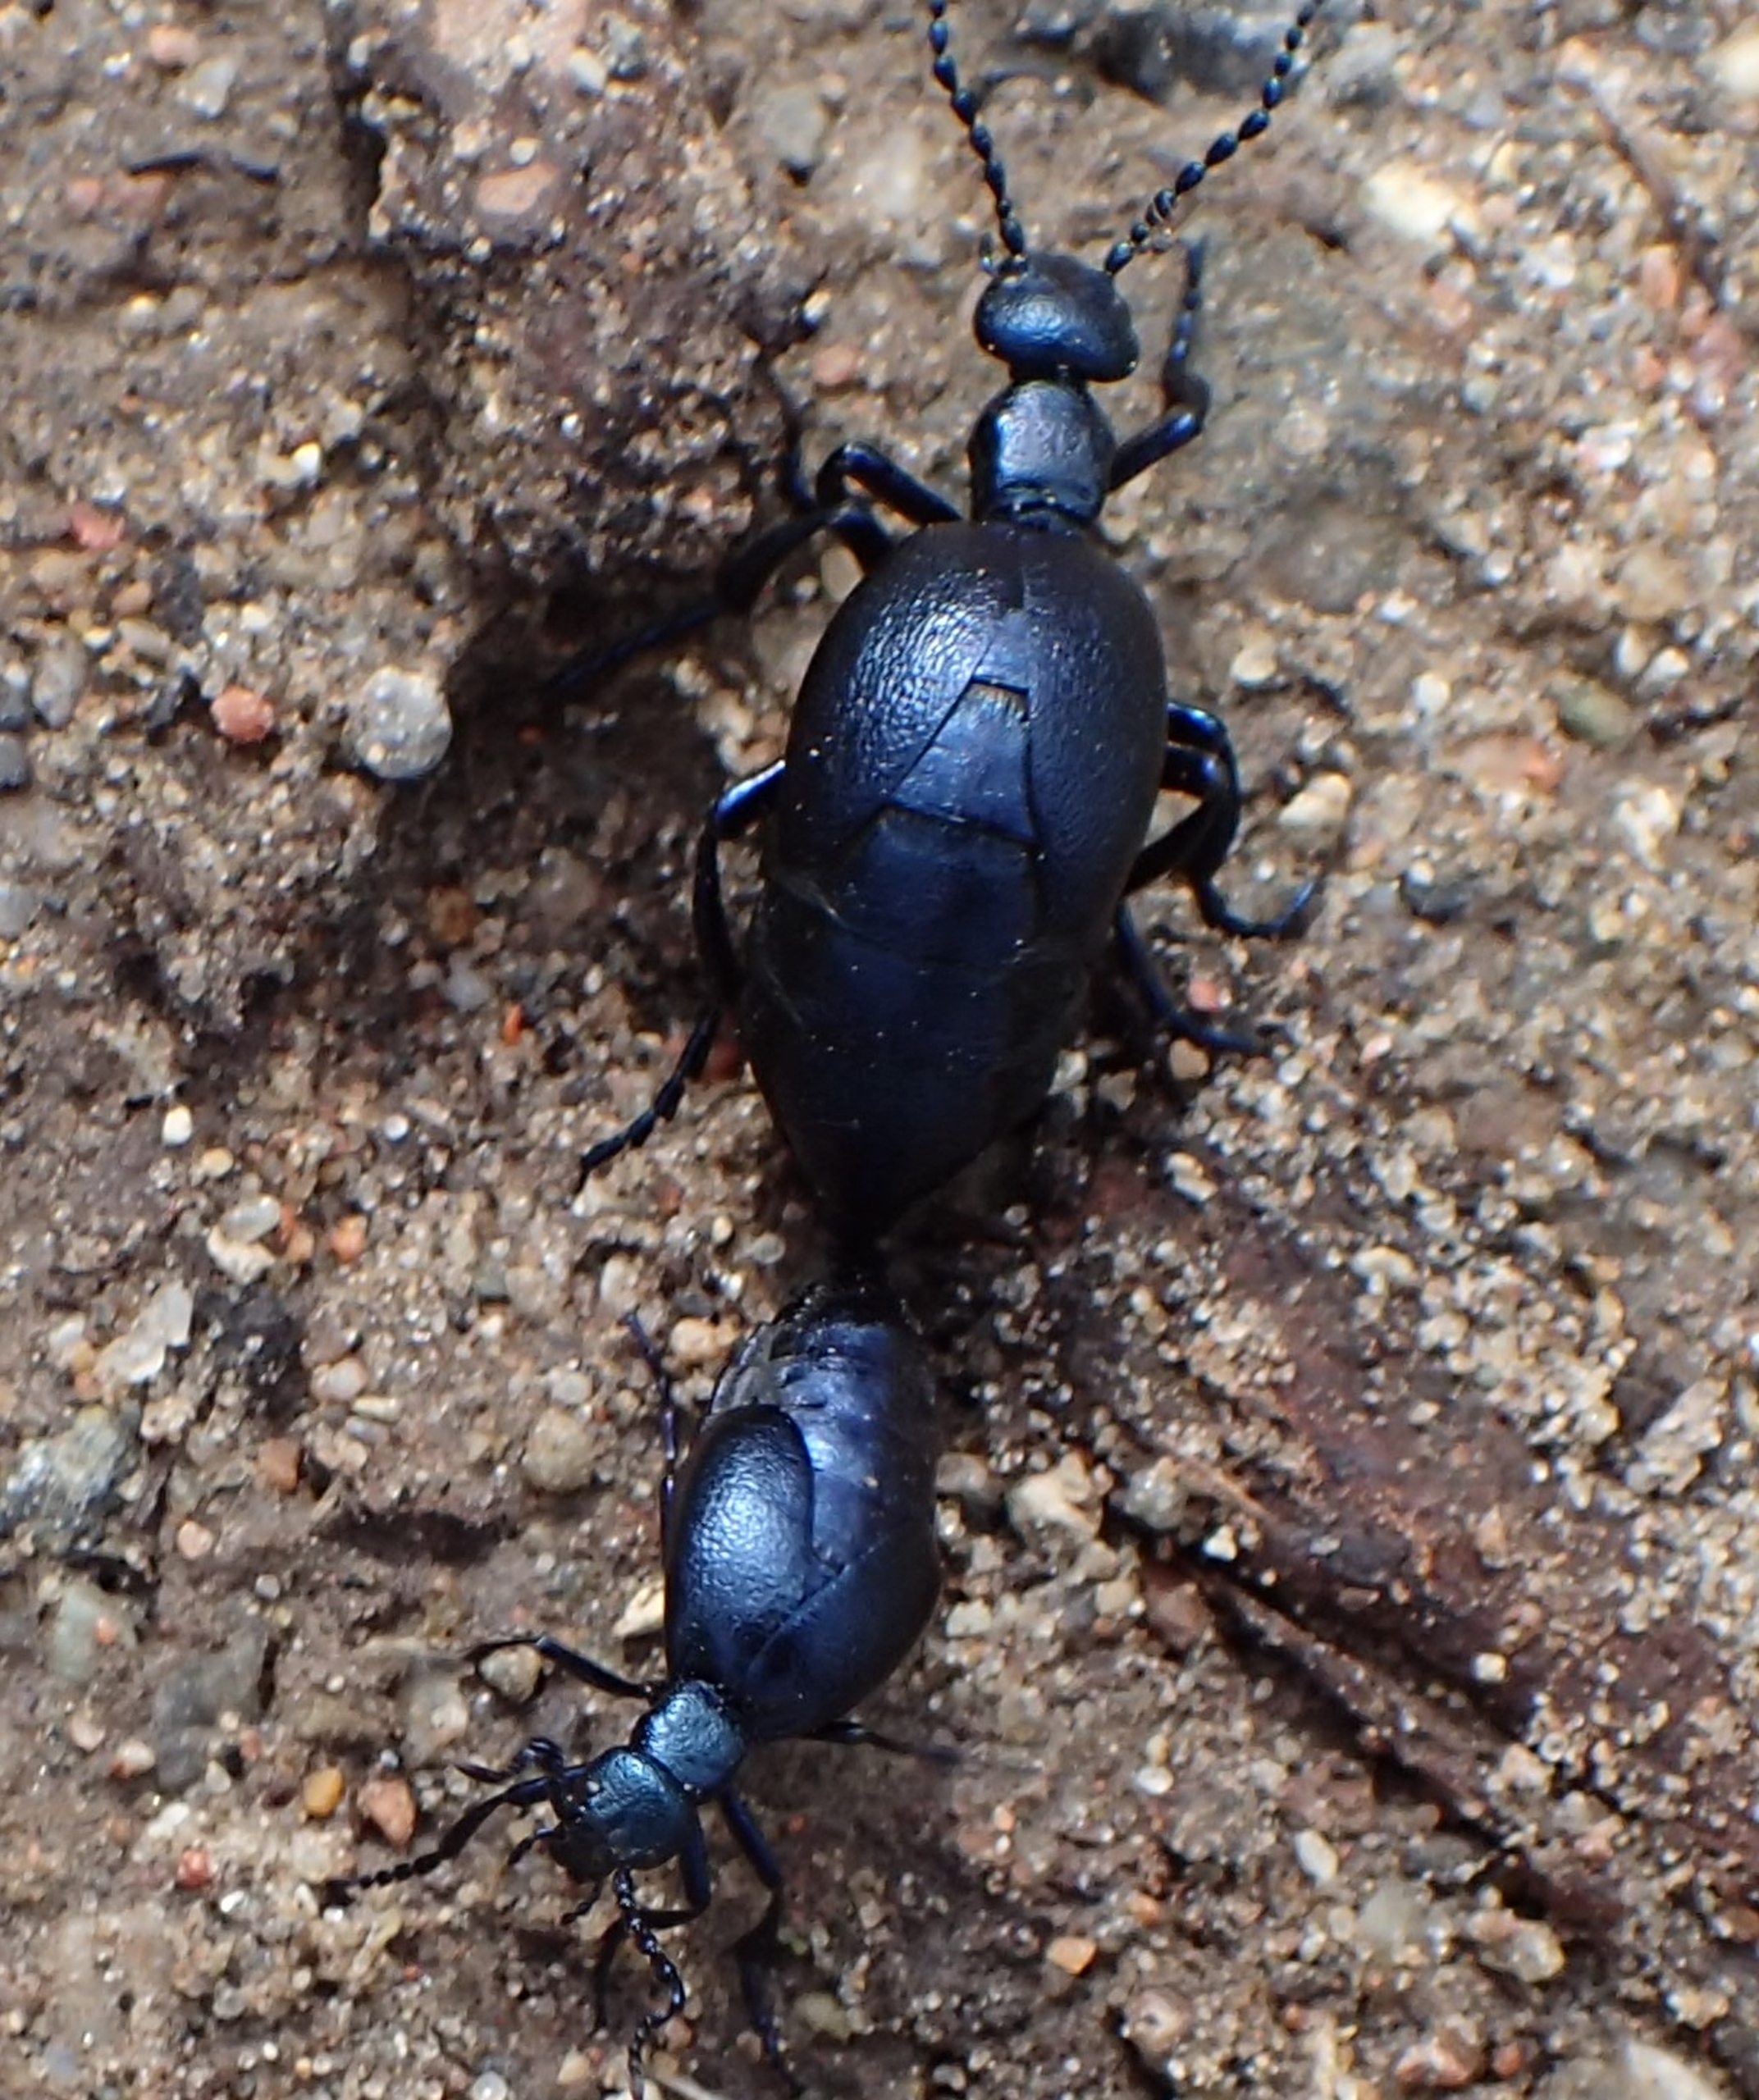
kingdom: Animalia
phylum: Arthropoda
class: Insecta
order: Coleoptera
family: Meloidae
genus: Meloe
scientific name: Meloe violaceus
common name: Blå oliebille
